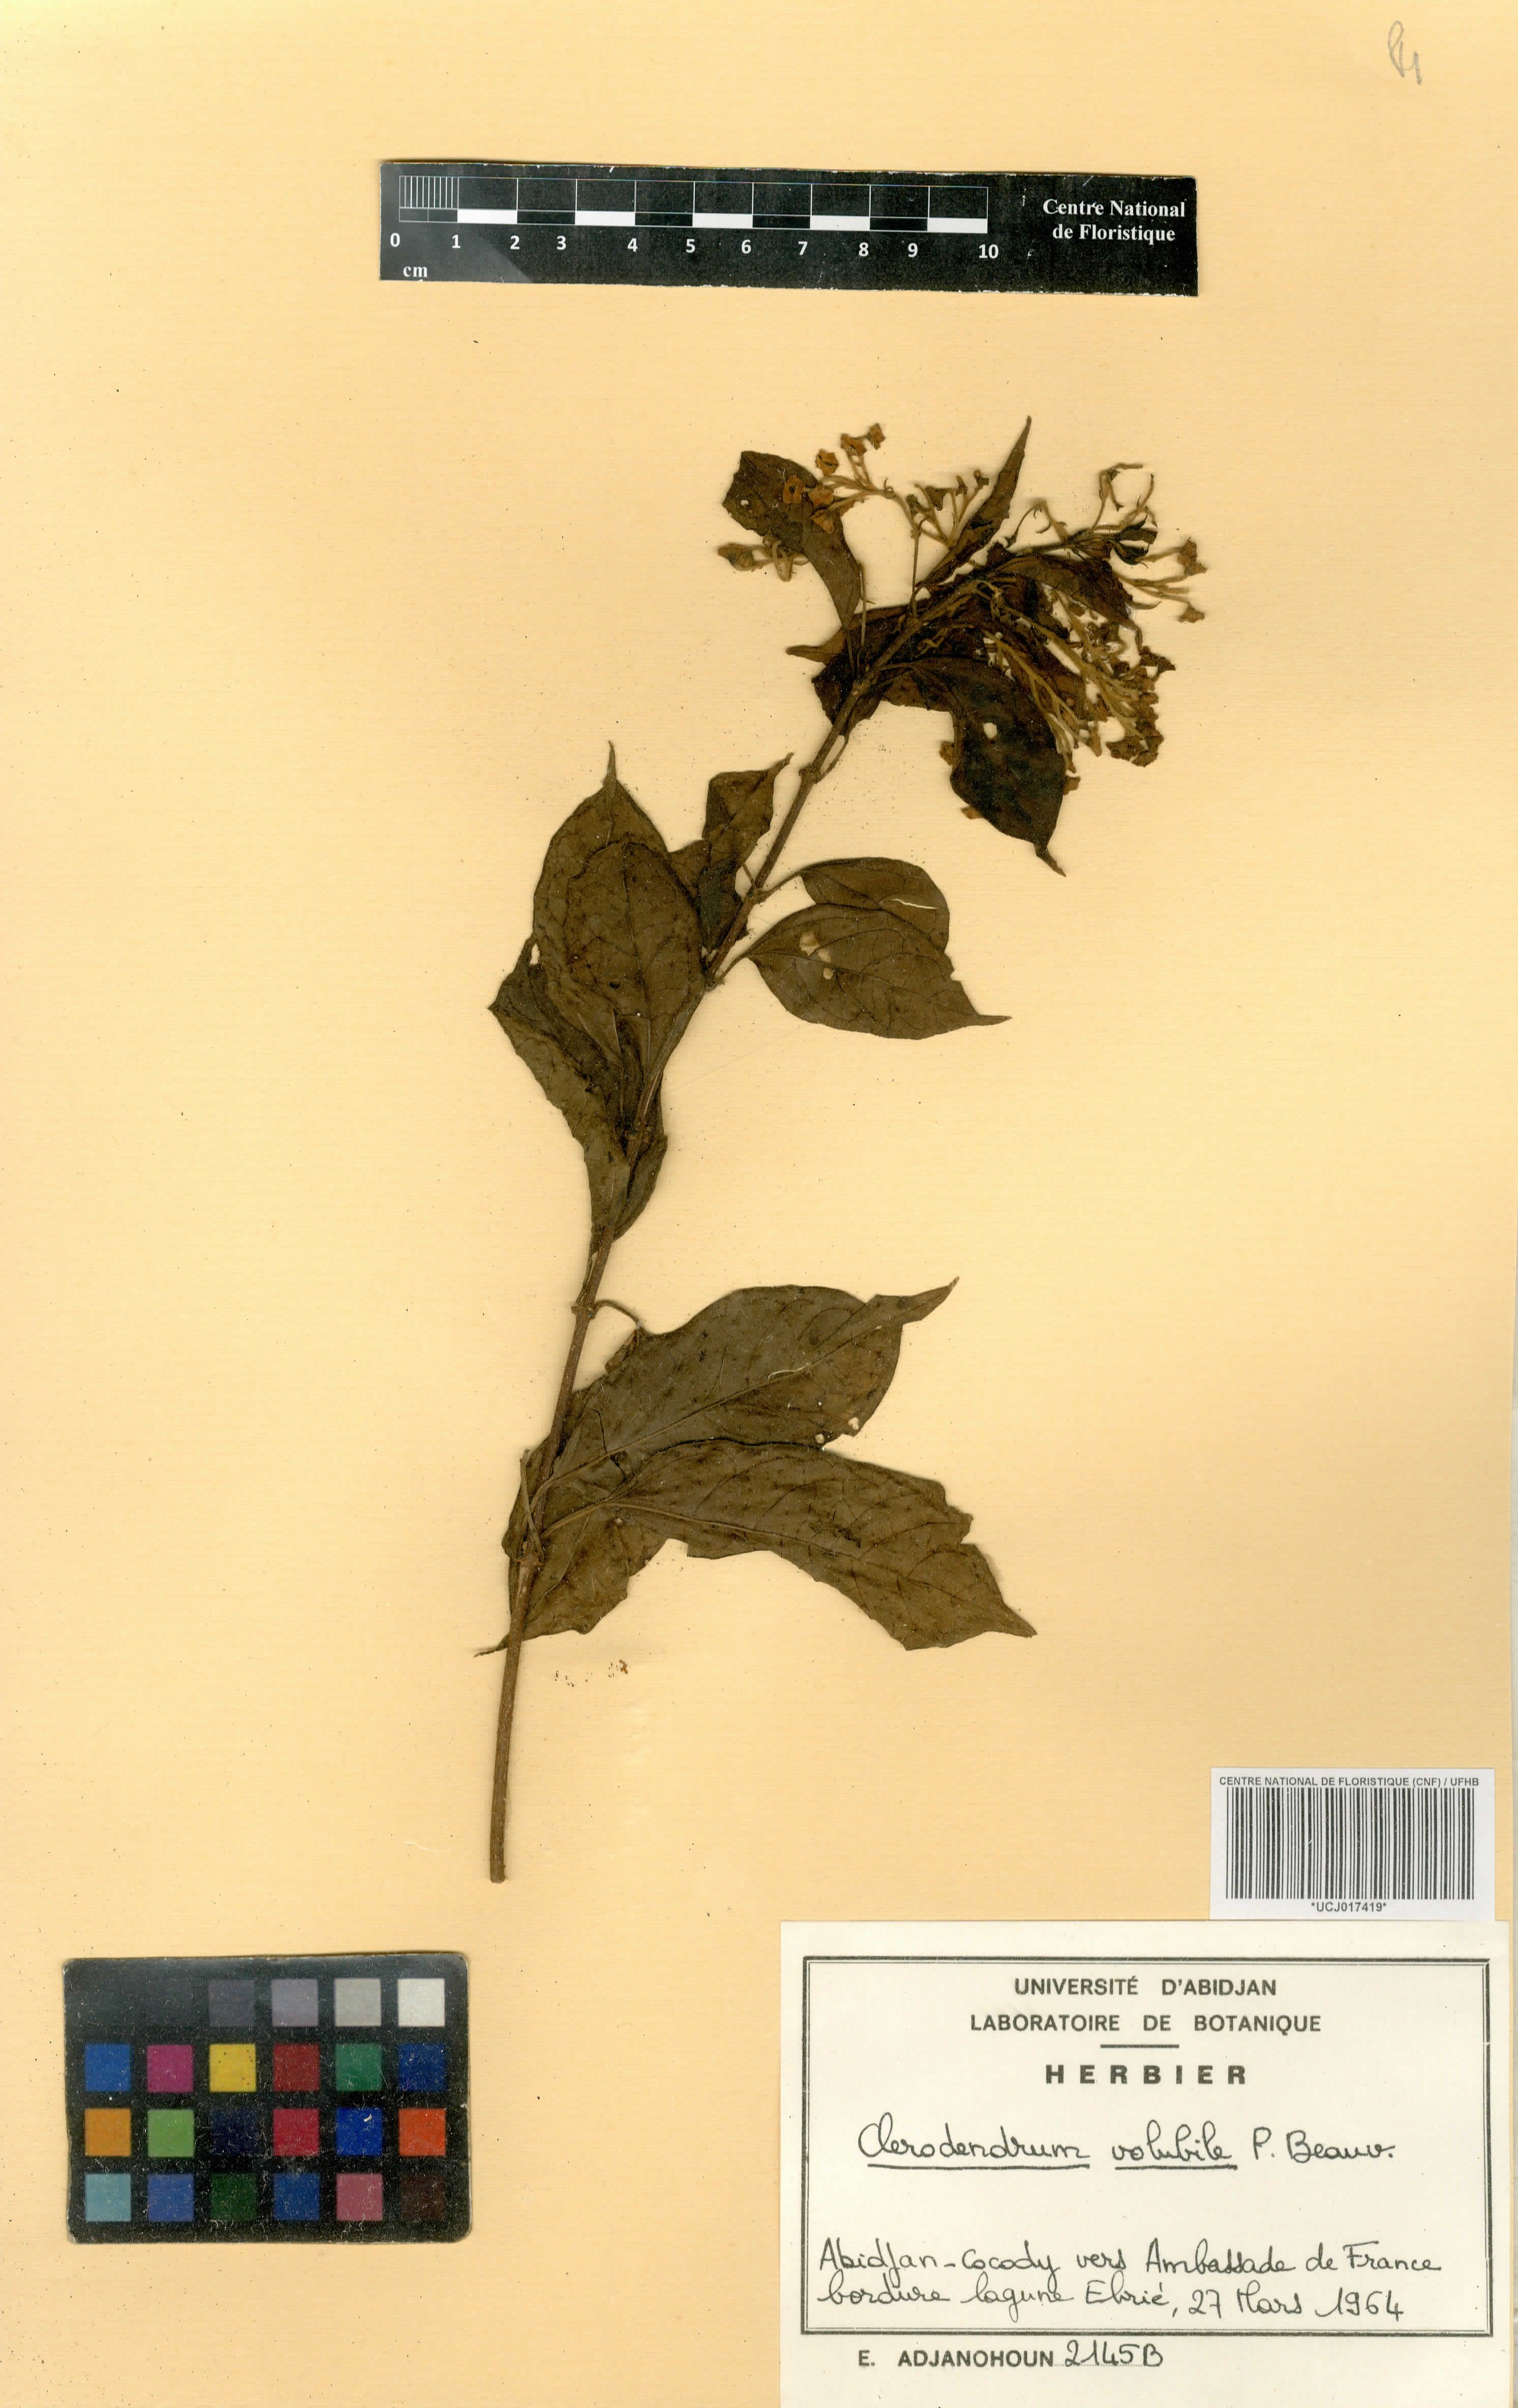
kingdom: Plantae
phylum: Tracheophyta
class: Magnoliopsida
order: Lamiales
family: Lamiaceae
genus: Clerodendrum
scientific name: Clerodendrum volubile
